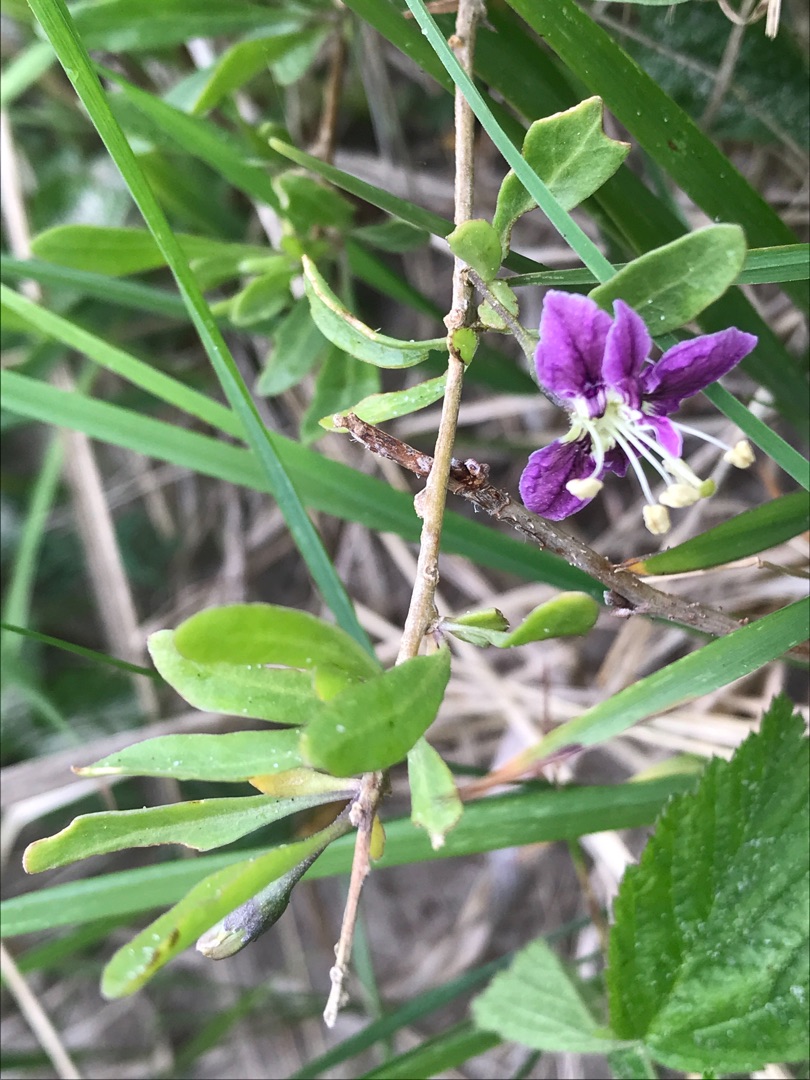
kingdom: Plantae
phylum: Tracheophyta
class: Magnoliopsida
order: Solanales
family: Solanaceae
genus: Lycium
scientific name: Lycium barbarum
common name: Bukketorn
